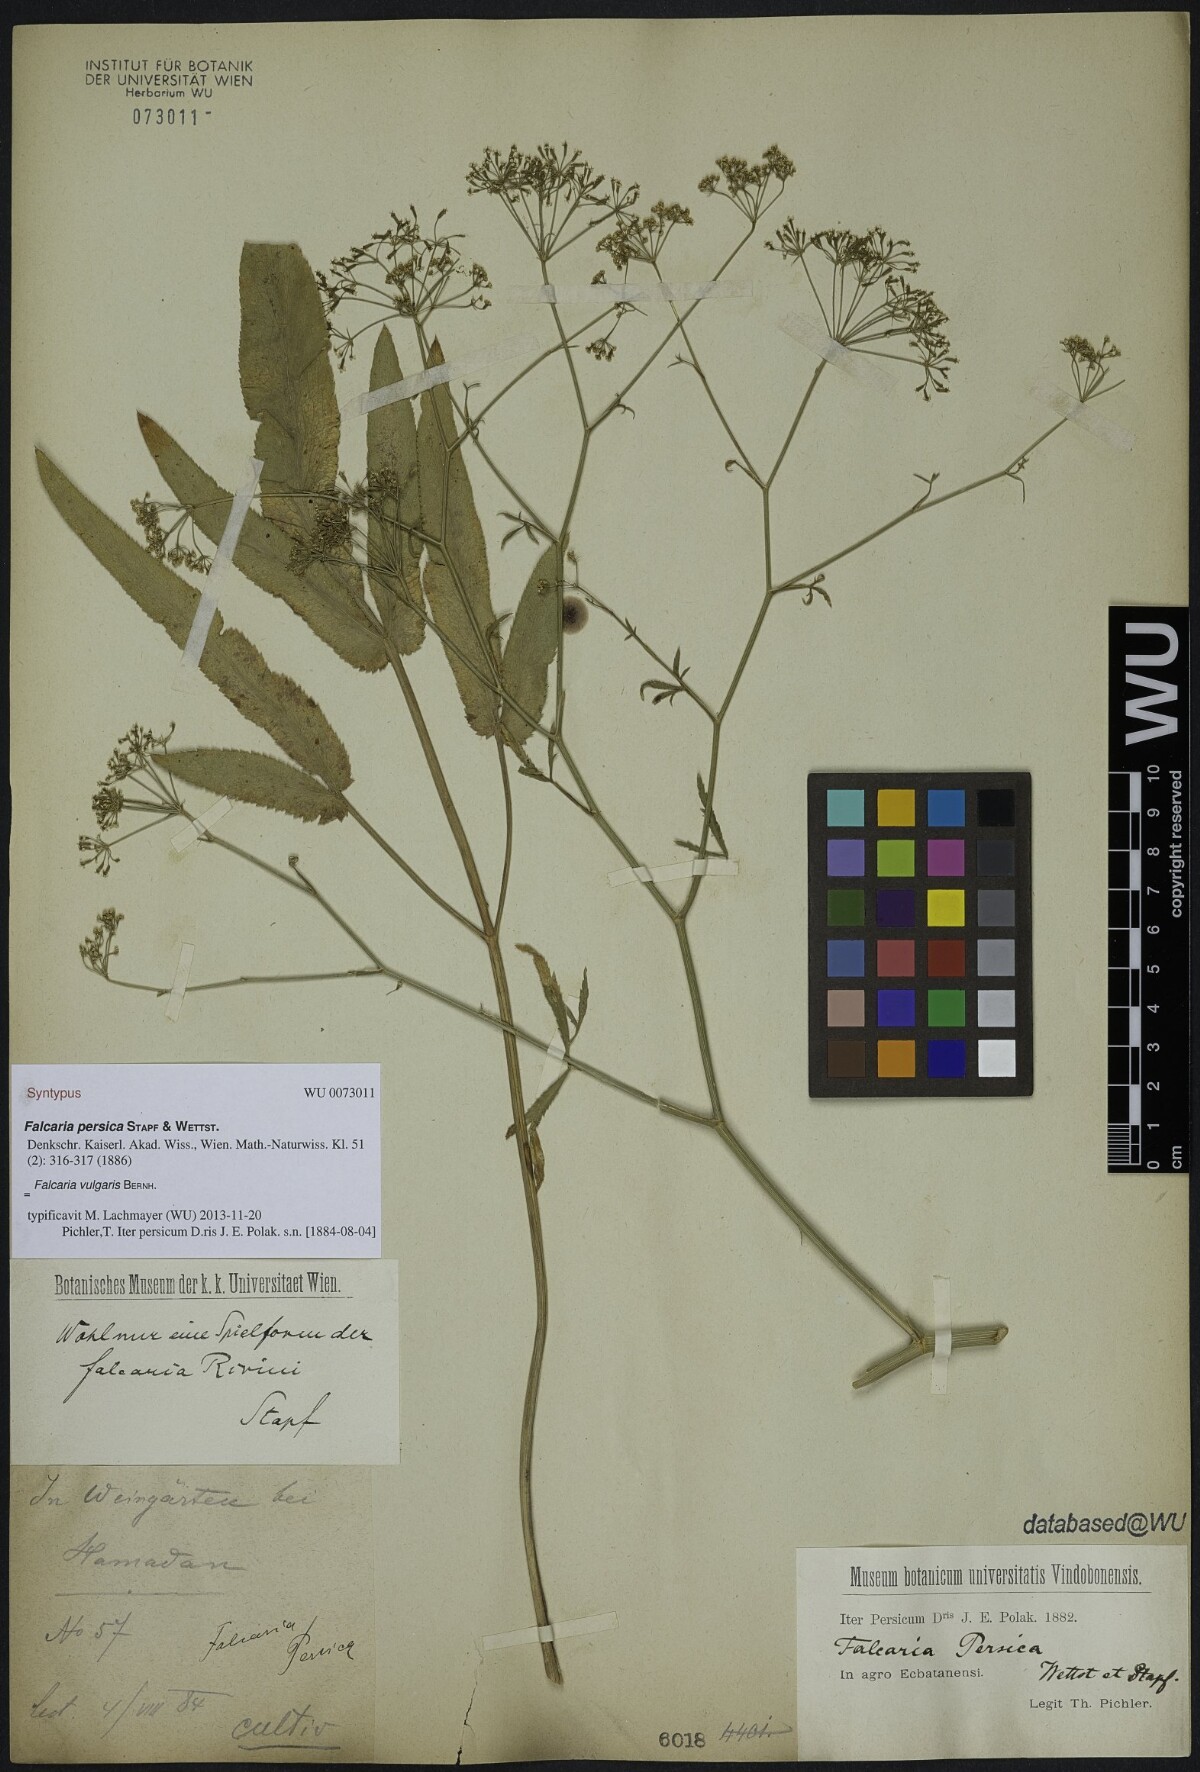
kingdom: Plantae
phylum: Tracheophyta
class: Magnoliopsida
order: Apiales
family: Apiaceae
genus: Falcaria
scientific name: Falcaria vulgaris
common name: Longleaf
